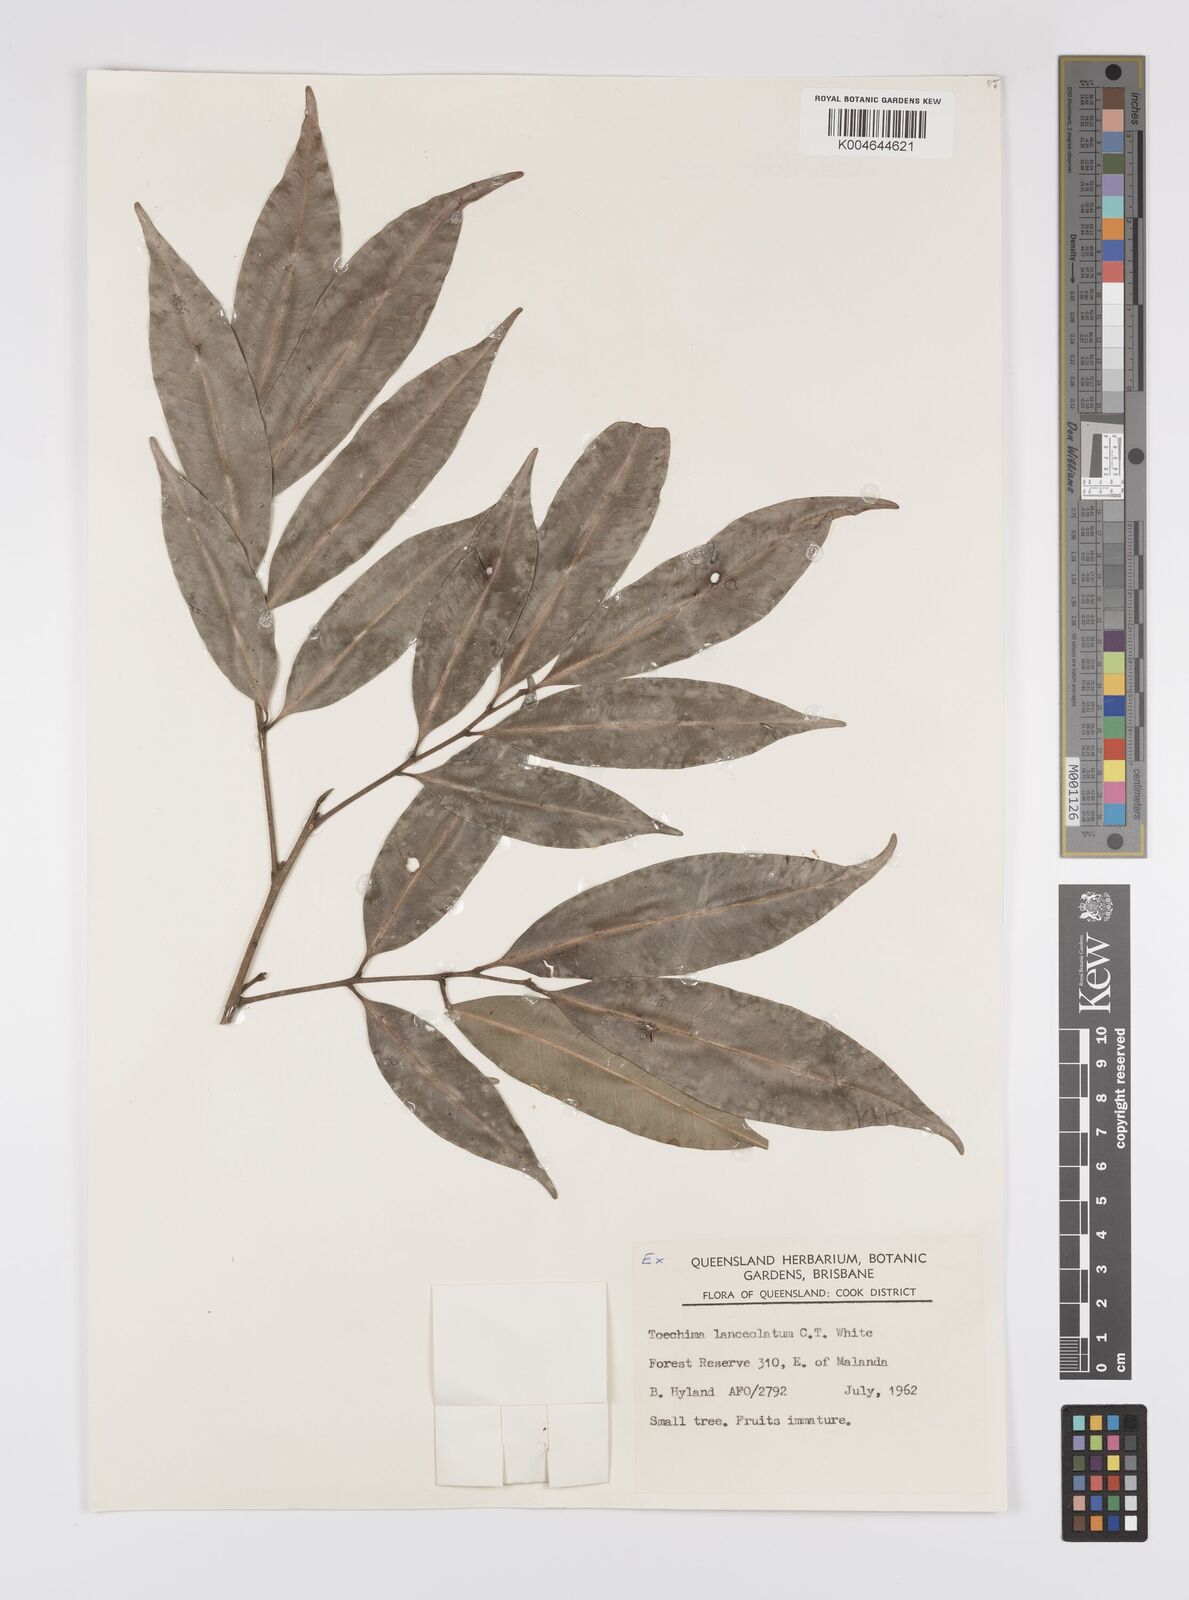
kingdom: Plantae
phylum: Tracheophyta
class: Magnoliopsida
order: Sapindales
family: Sapindaceae
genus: Sarcotoechia
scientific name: Sarcotoechia lanceolata
